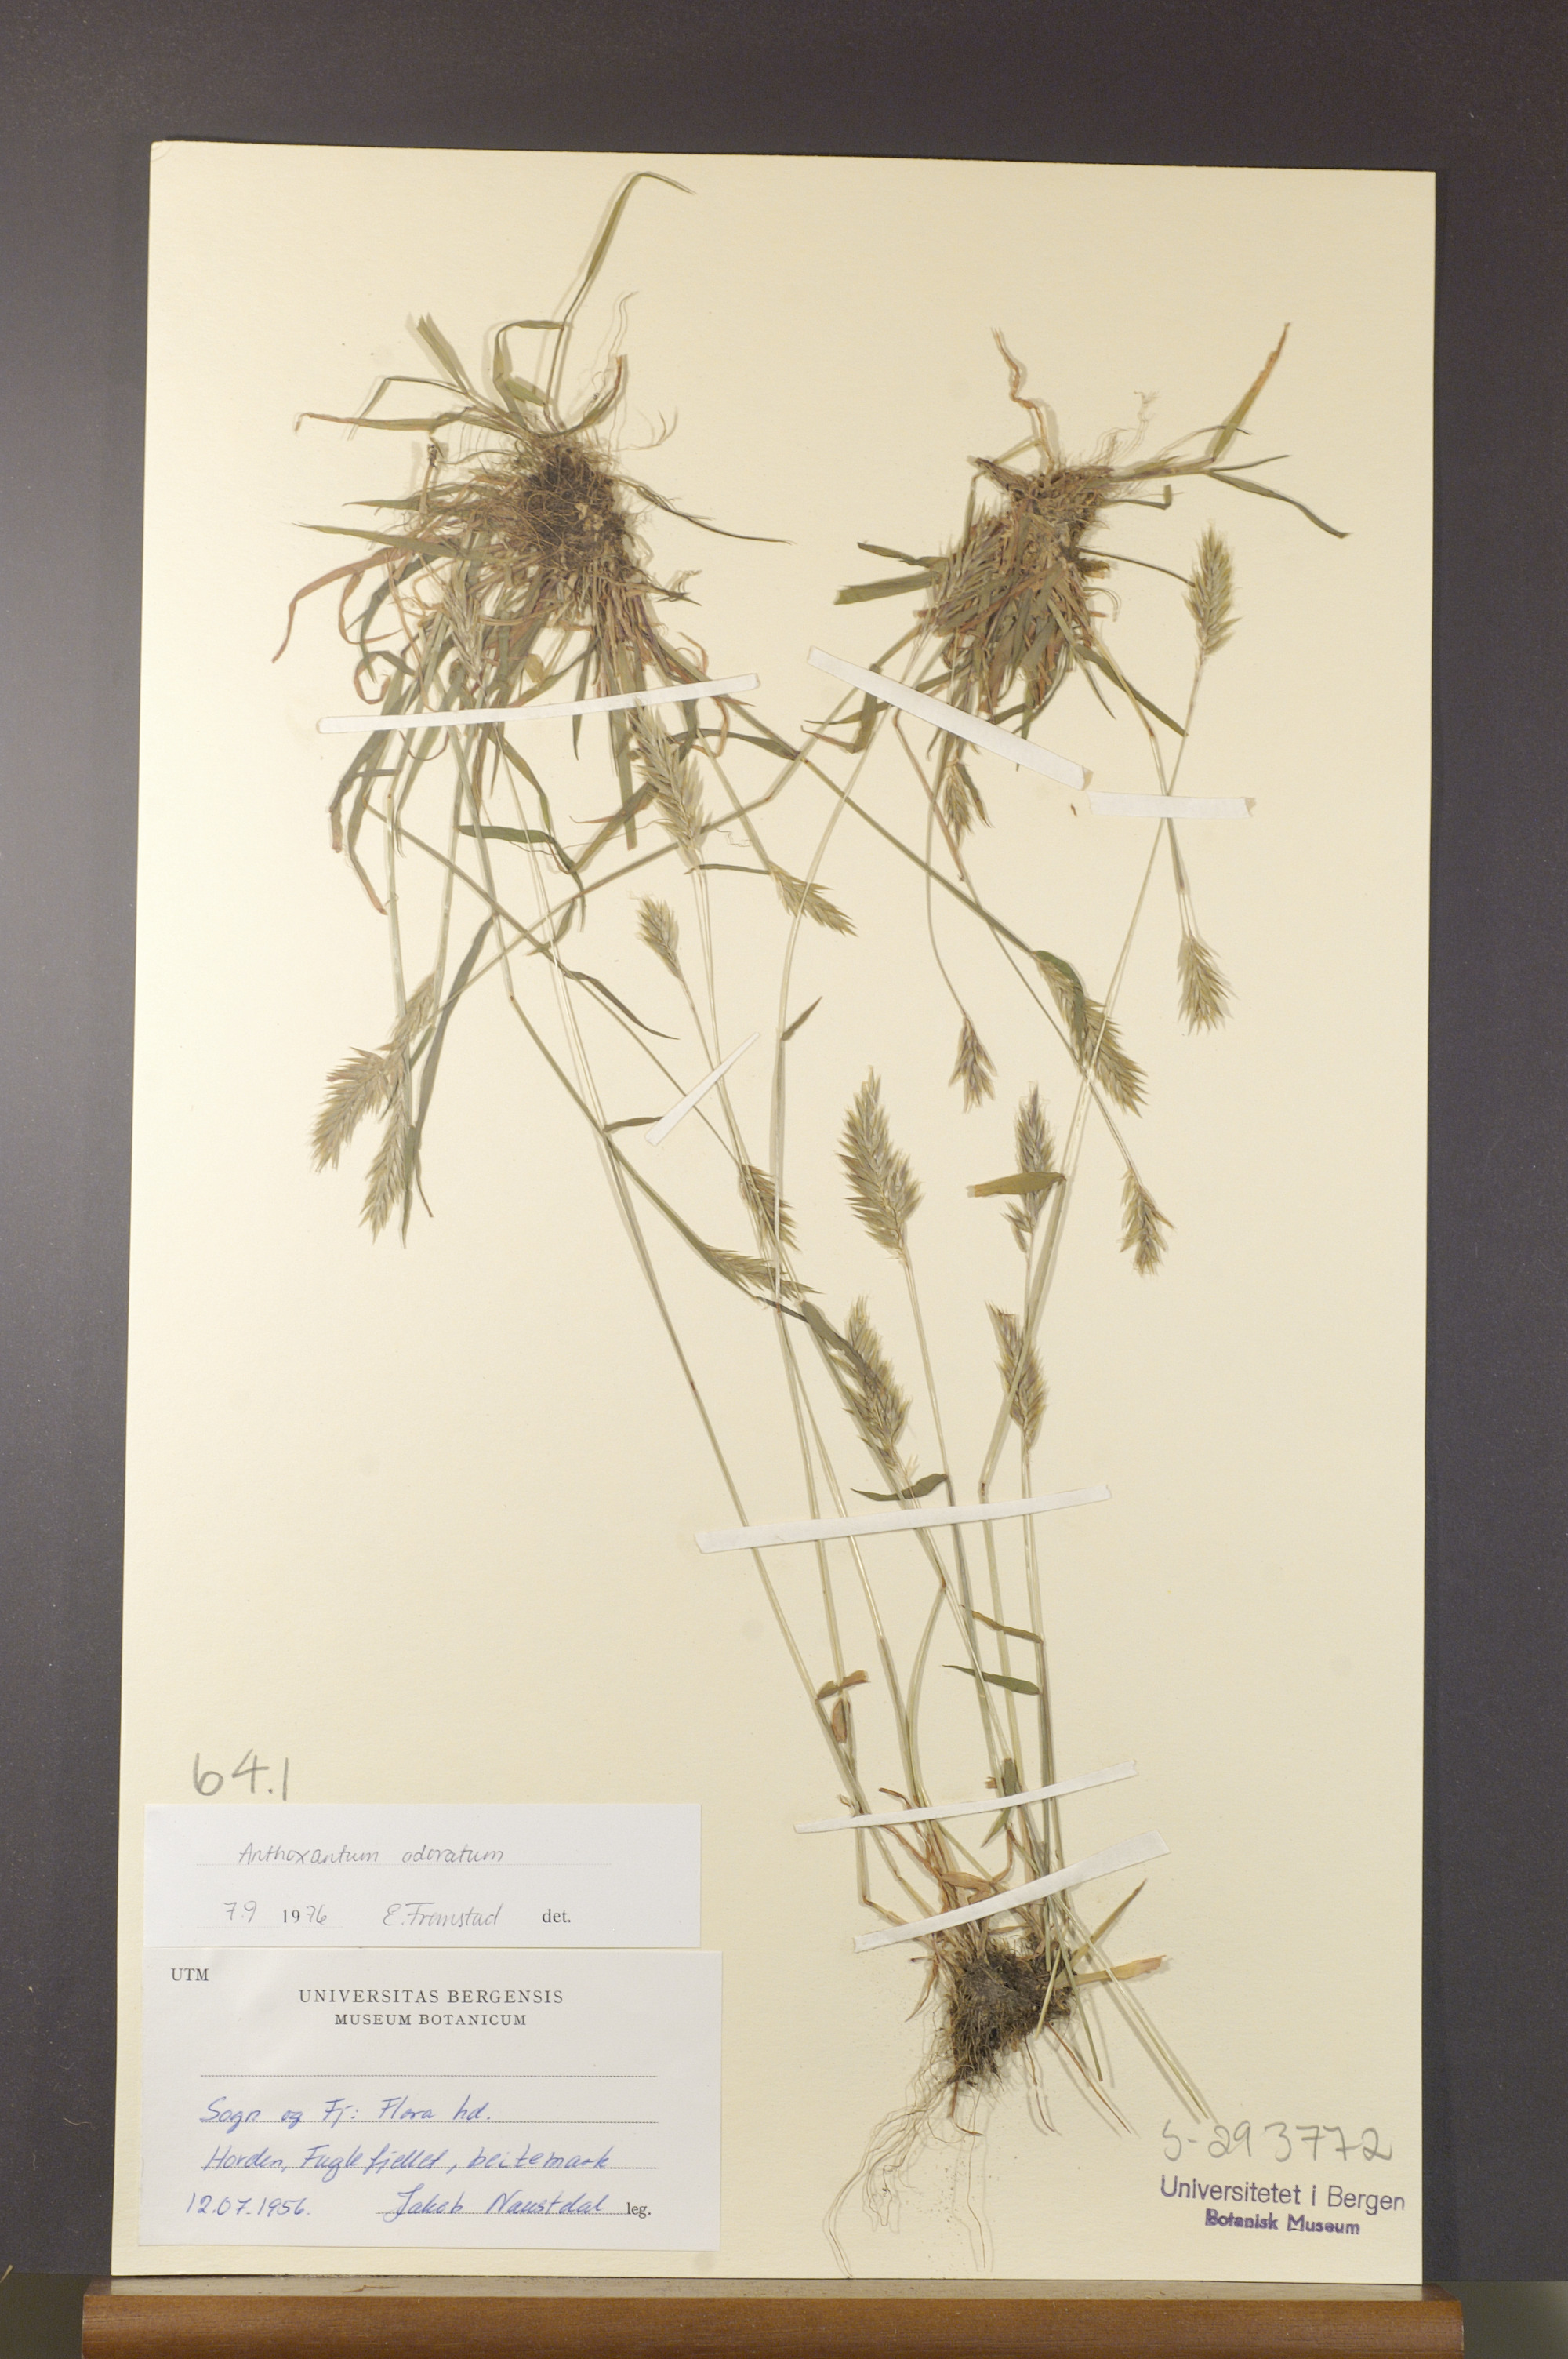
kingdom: Plantae
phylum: Tracheophyta
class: Liliopsida
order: Poales
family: Poaceae
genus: Anthoxanthum
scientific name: Anthoxanthum odoratum
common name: Sweet vernalgrass
